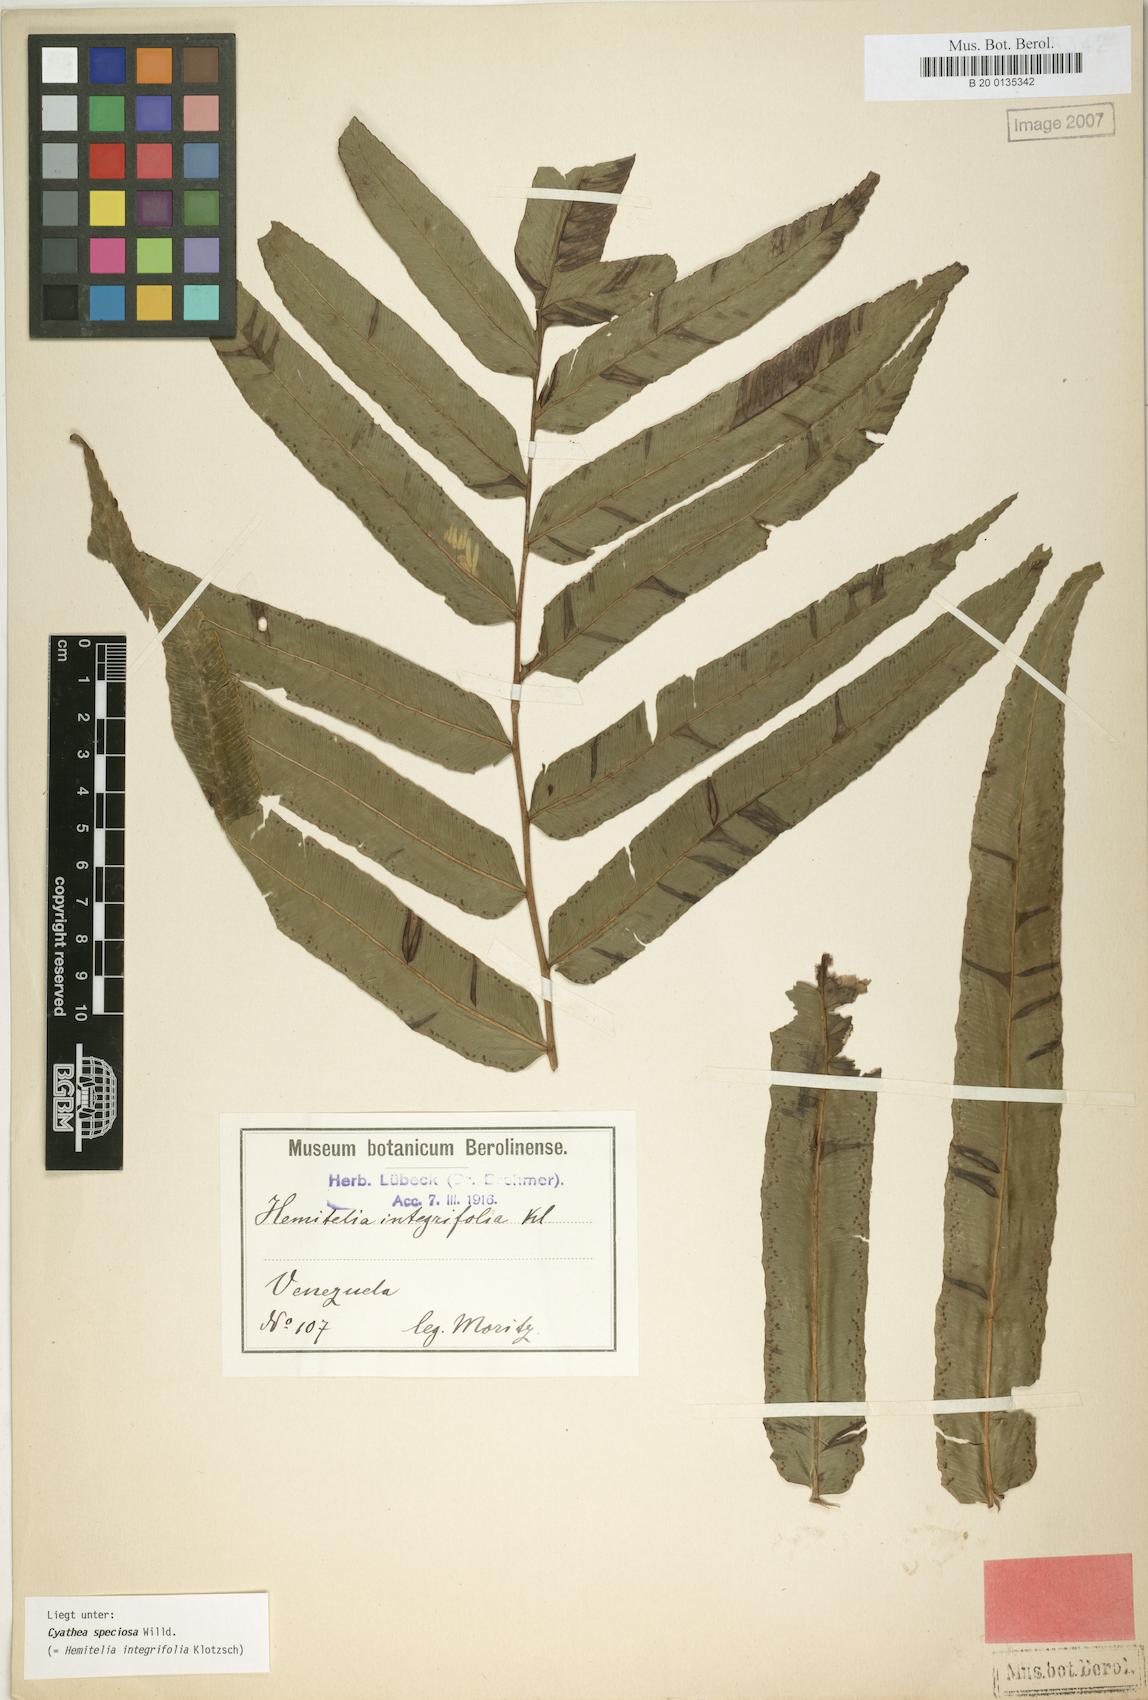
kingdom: Plantae
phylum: Tracheophyta
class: Polypodiopsida
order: Cyatheales
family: Cyatheaceae
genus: Cyathea
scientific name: Cyathea speciosa
